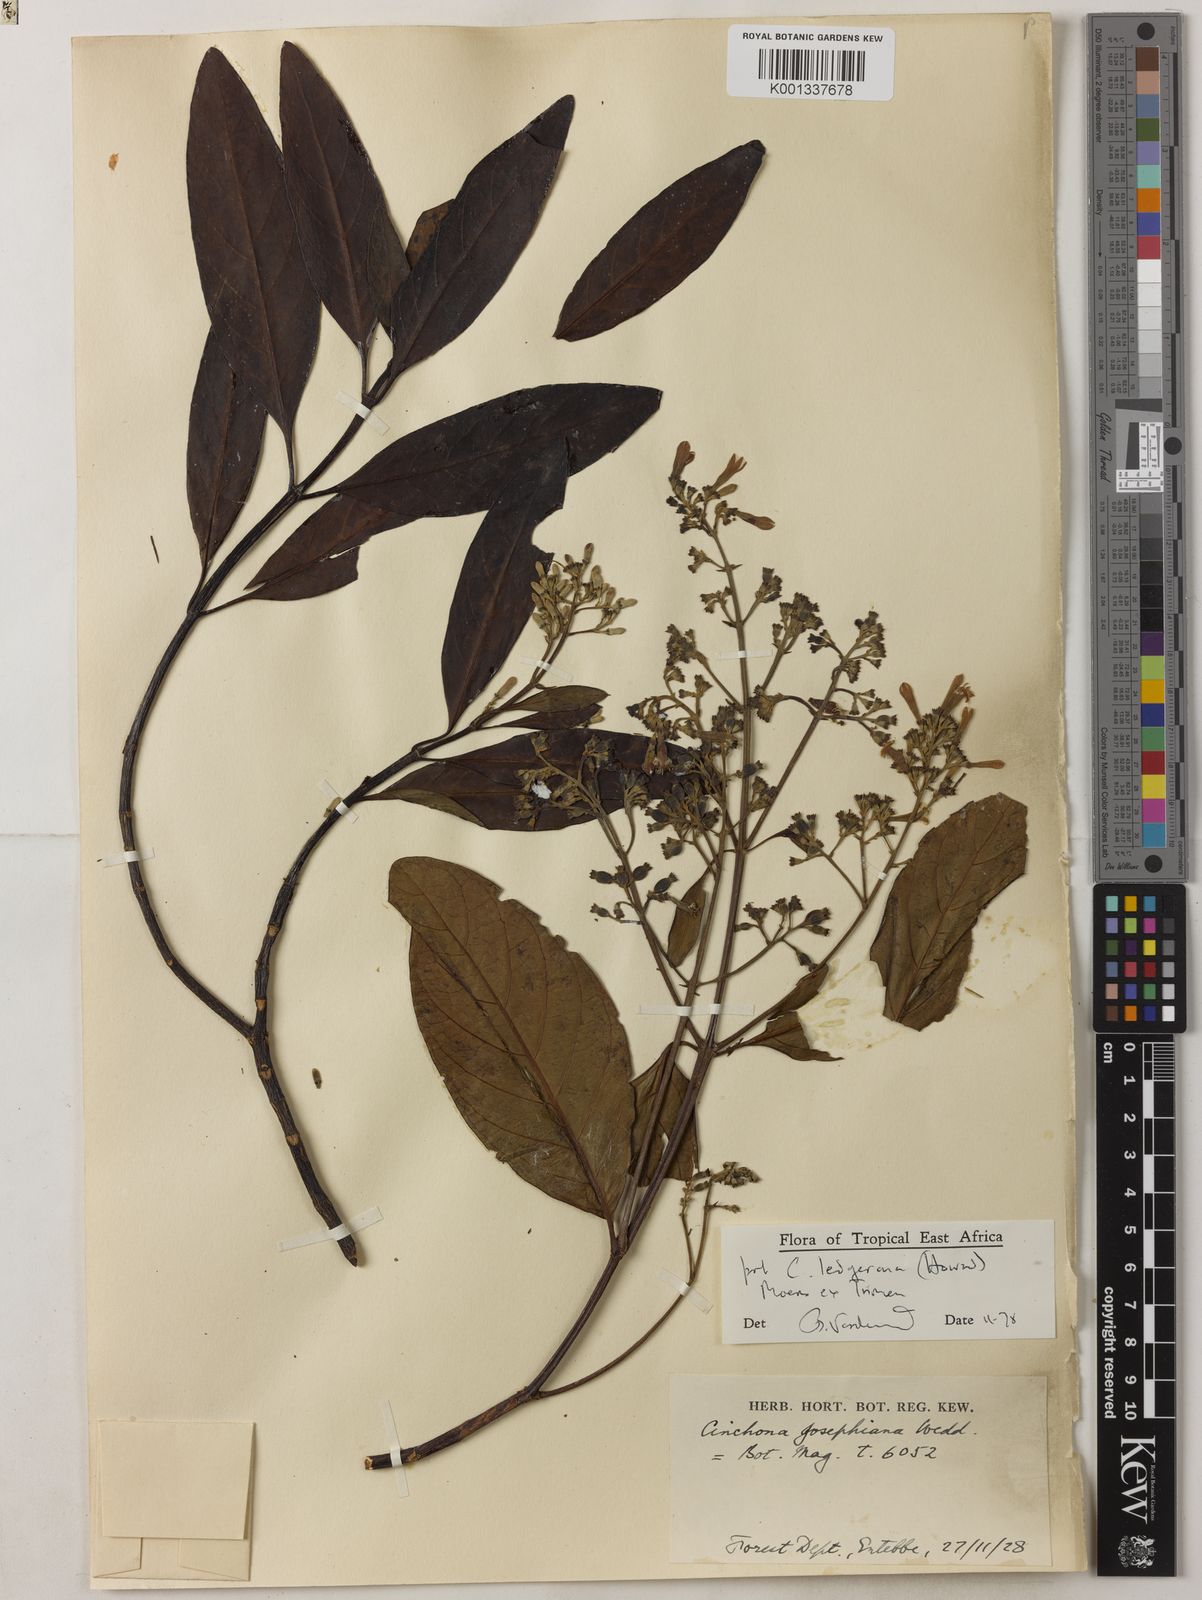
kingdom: Plantae
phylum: Tracheophyta
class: Magnoliopsida
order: Gentianales
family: Rubiaceae
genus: Cinchona
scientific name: Cinchona officinalis
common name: Lojabark
